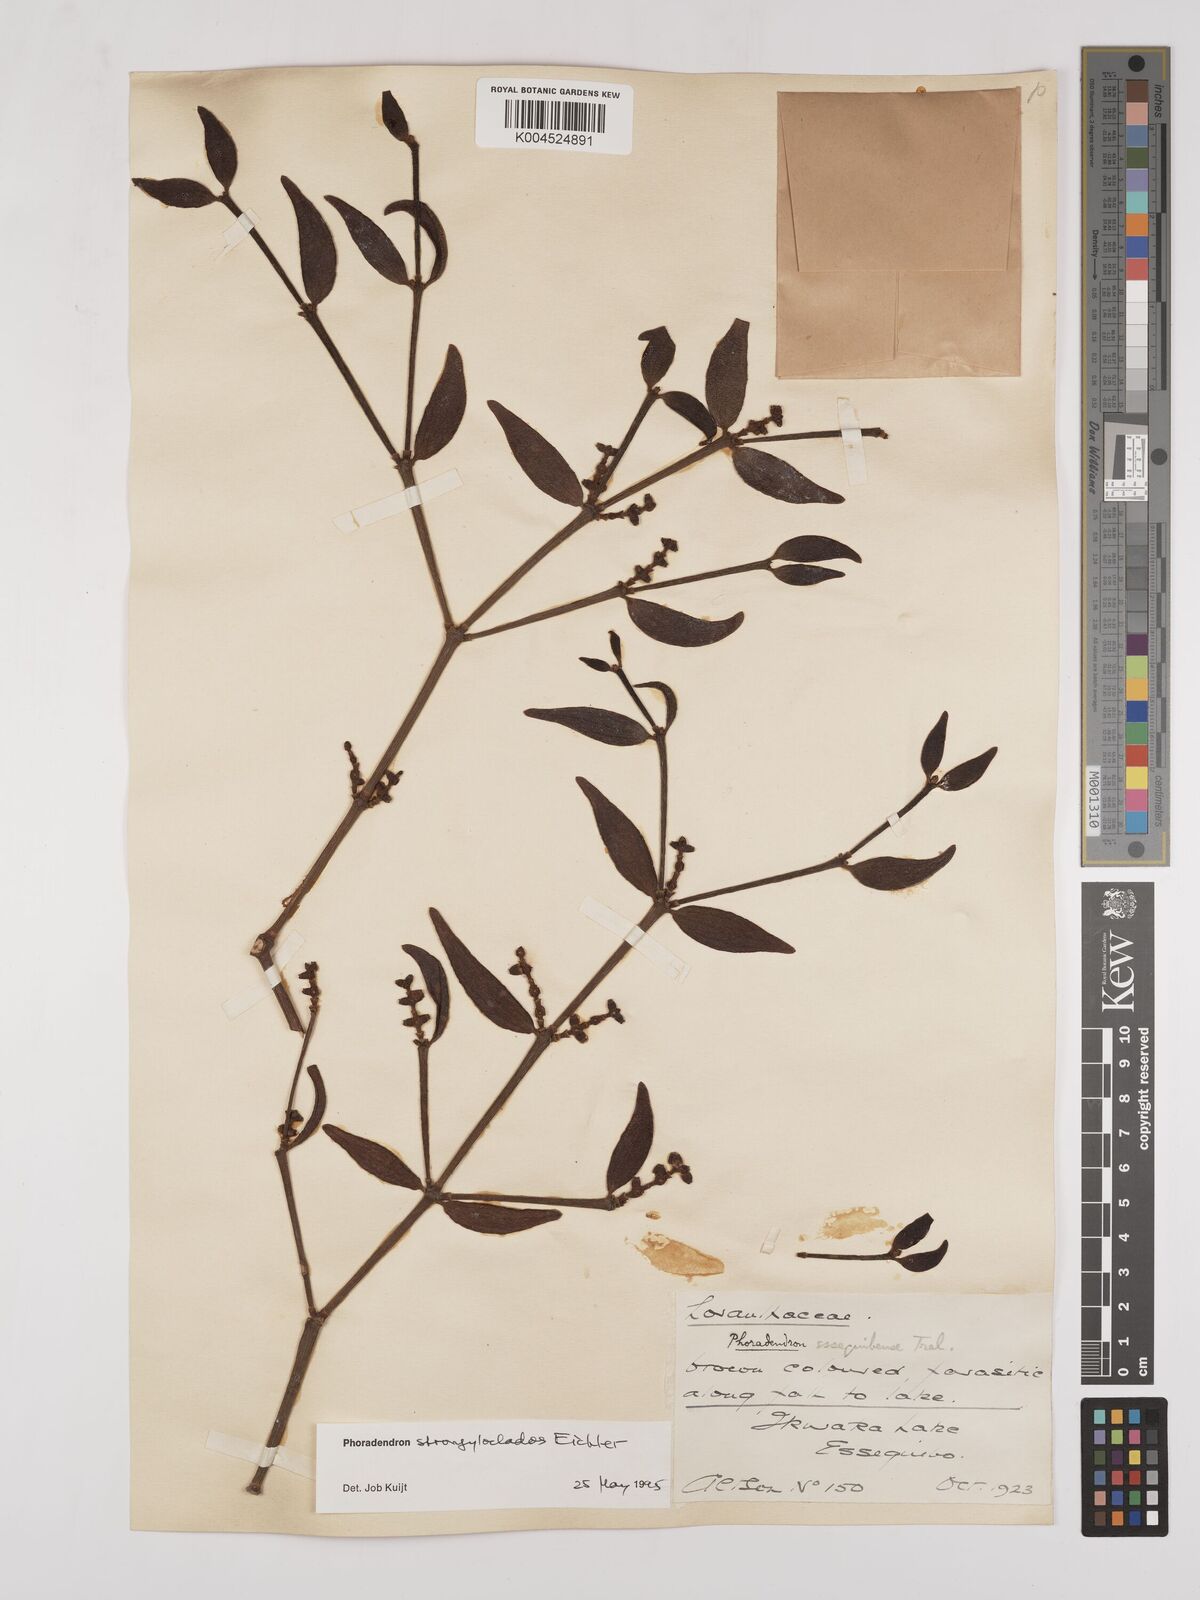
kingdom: Plantae
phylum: Tracheophyta
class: Magnoliopsida
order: Santalales
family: Viscaceae
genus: Phoradendron
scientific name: Phoradendron strongyloclados
